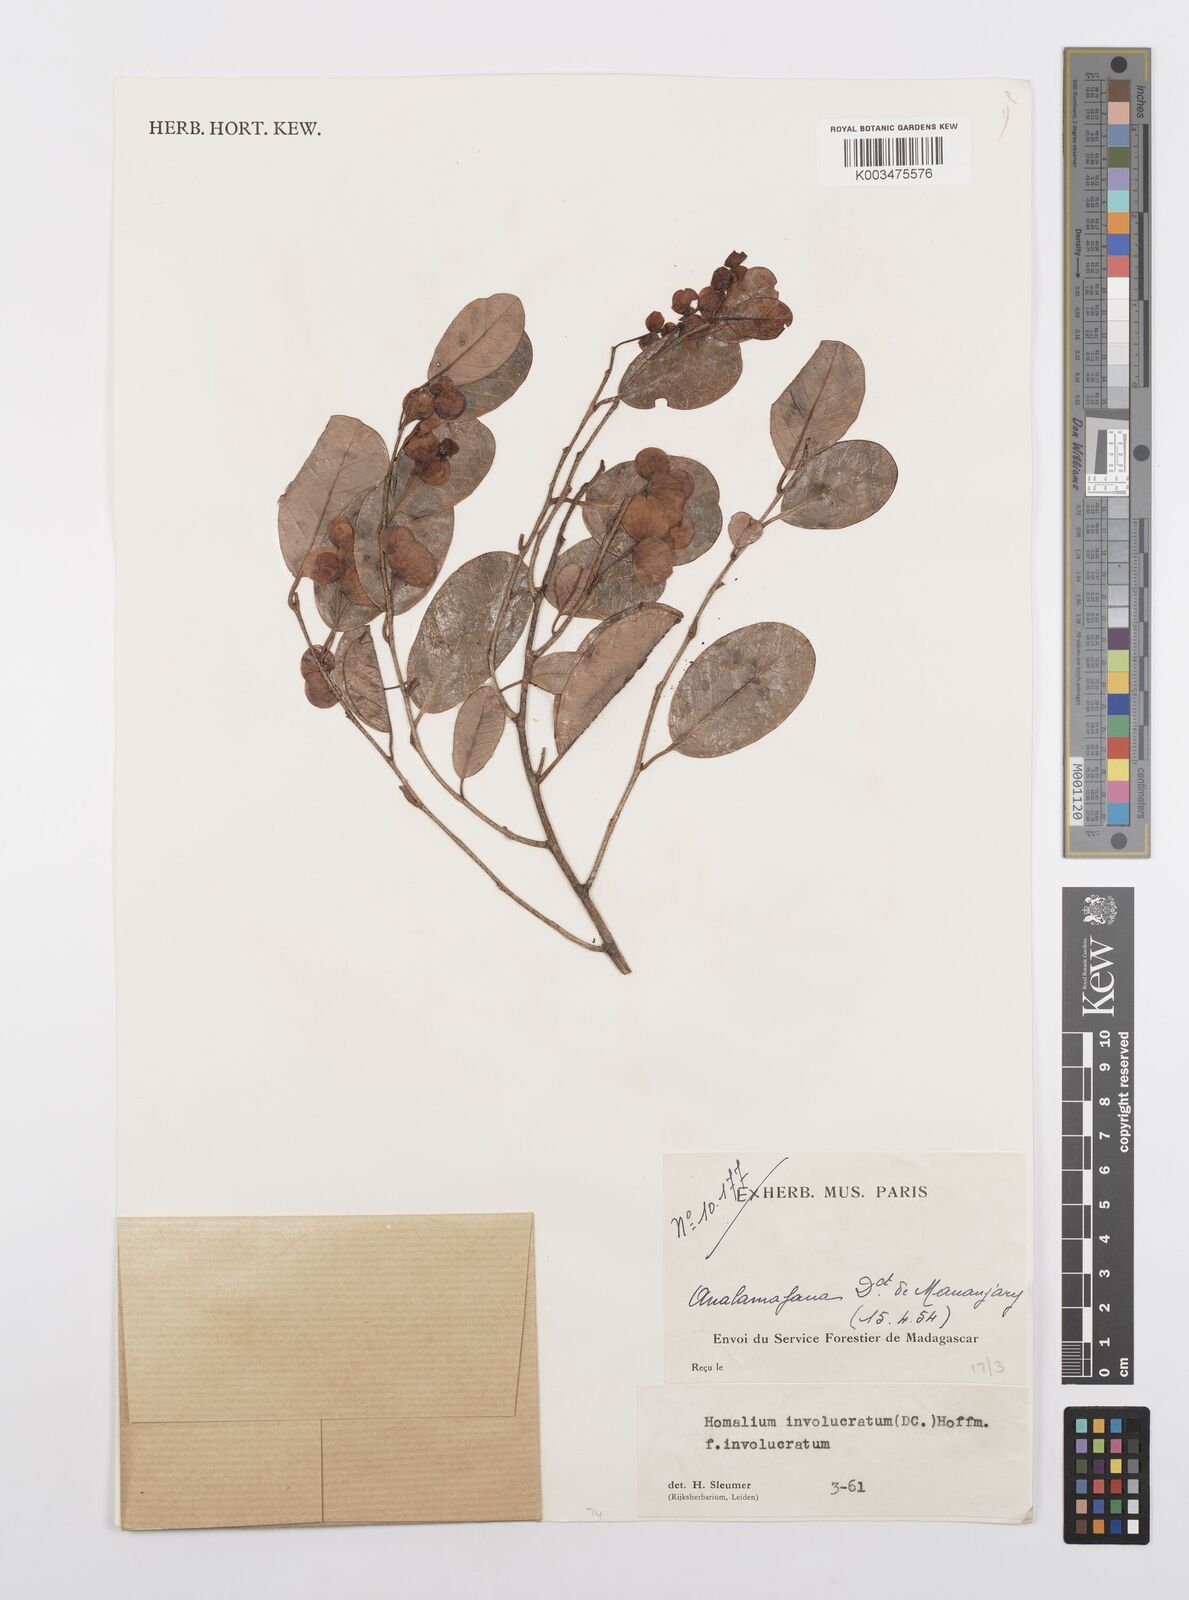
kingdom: Plantae
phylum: Tracheophyta
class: Magnoliopsida
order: Malpighiales
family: Salicaceae
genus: Homalium
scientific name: Homalium involucratum
